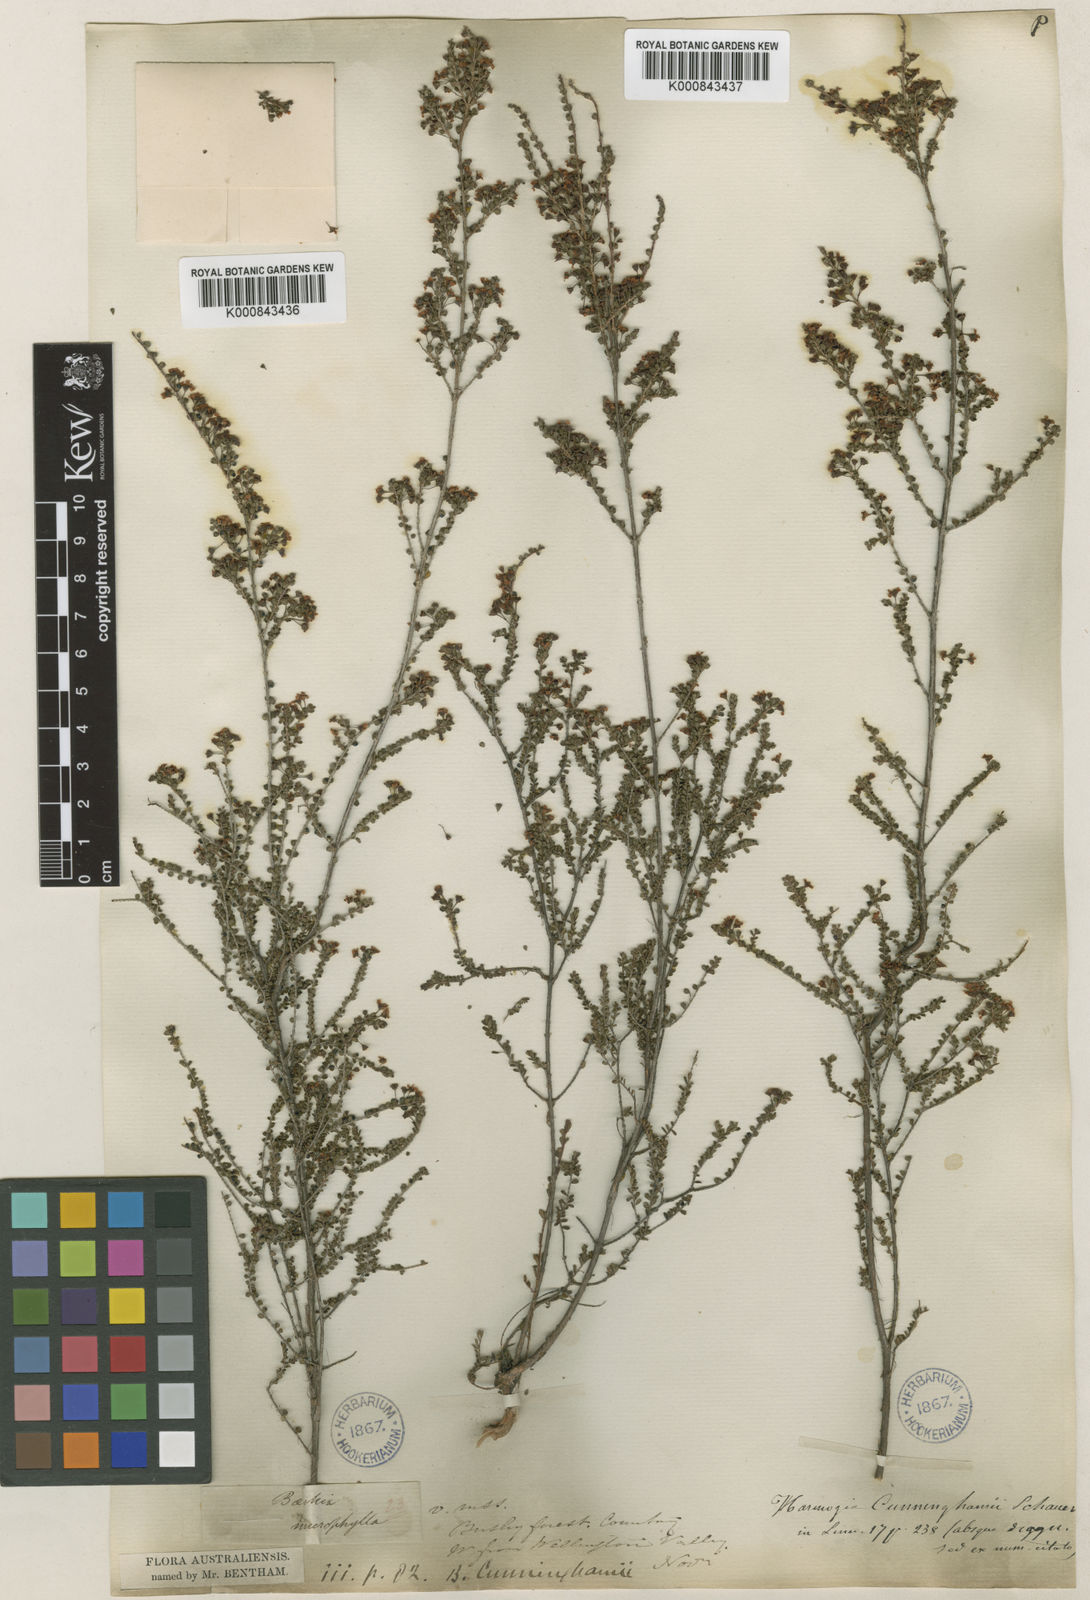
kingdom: Plantae
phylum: Tracheophyta
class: Magnoliopsida
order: Myrtales
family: Myrtaceae
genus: Sannantha
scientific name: Sannantha cunninghamii
